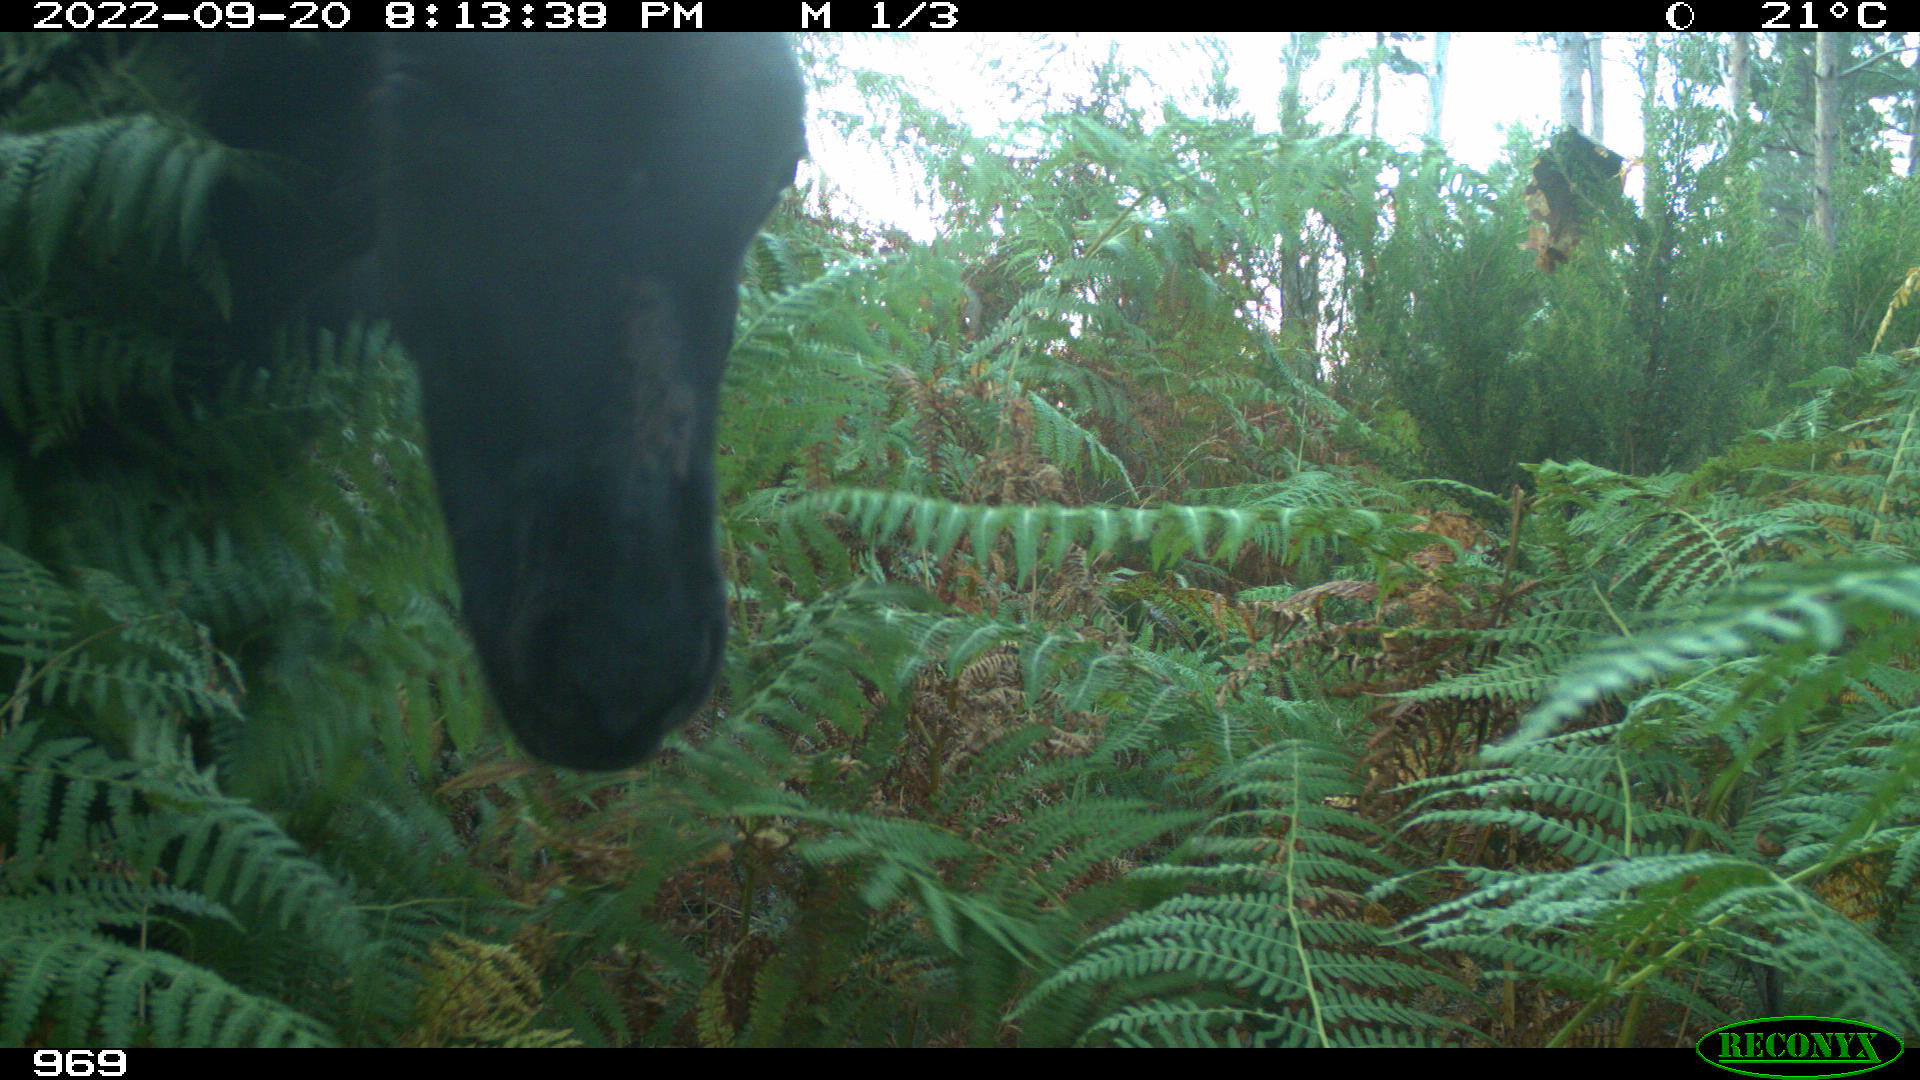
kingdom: Animalia
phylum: Chordata
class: Mammalia
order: Perissodactyla
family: Equidae
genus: Equus
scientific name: Equus caballus
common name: Horse
